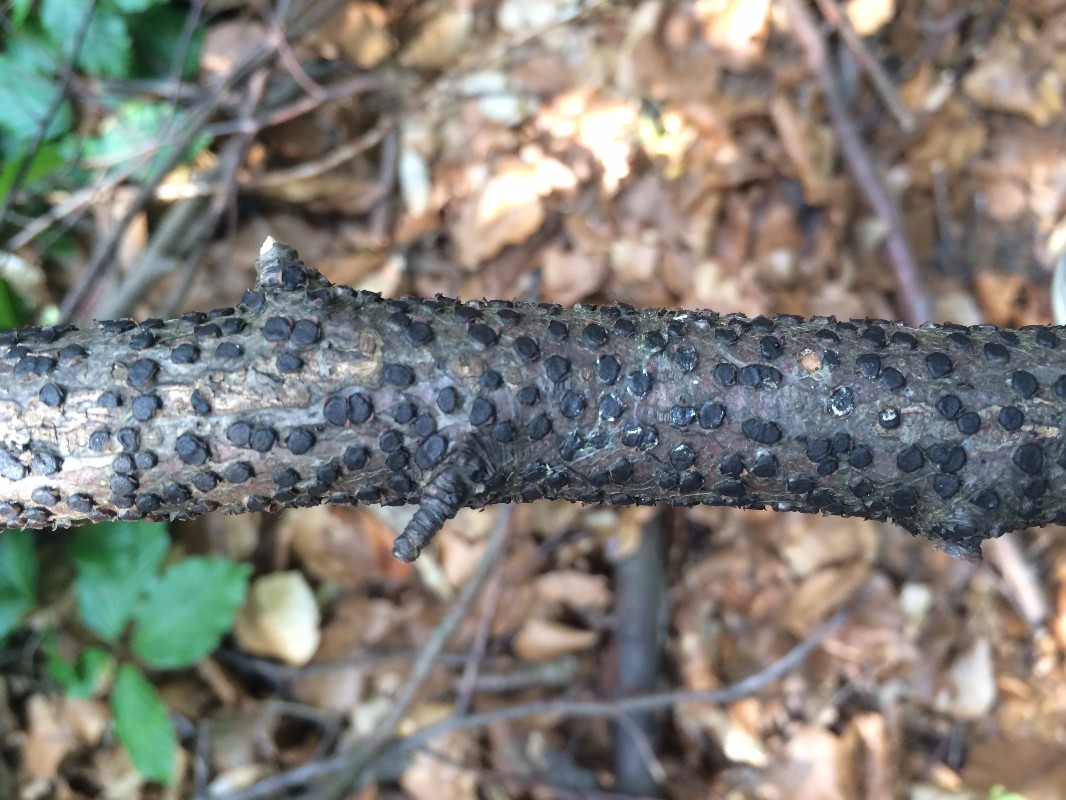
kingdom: Fungi
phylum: Ascomycota
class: Sordariomycetes
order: Xylariales
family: Diatrypaceae
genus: Diatrype
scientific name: Diatrype disciformis
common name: kant-kulskorpe
